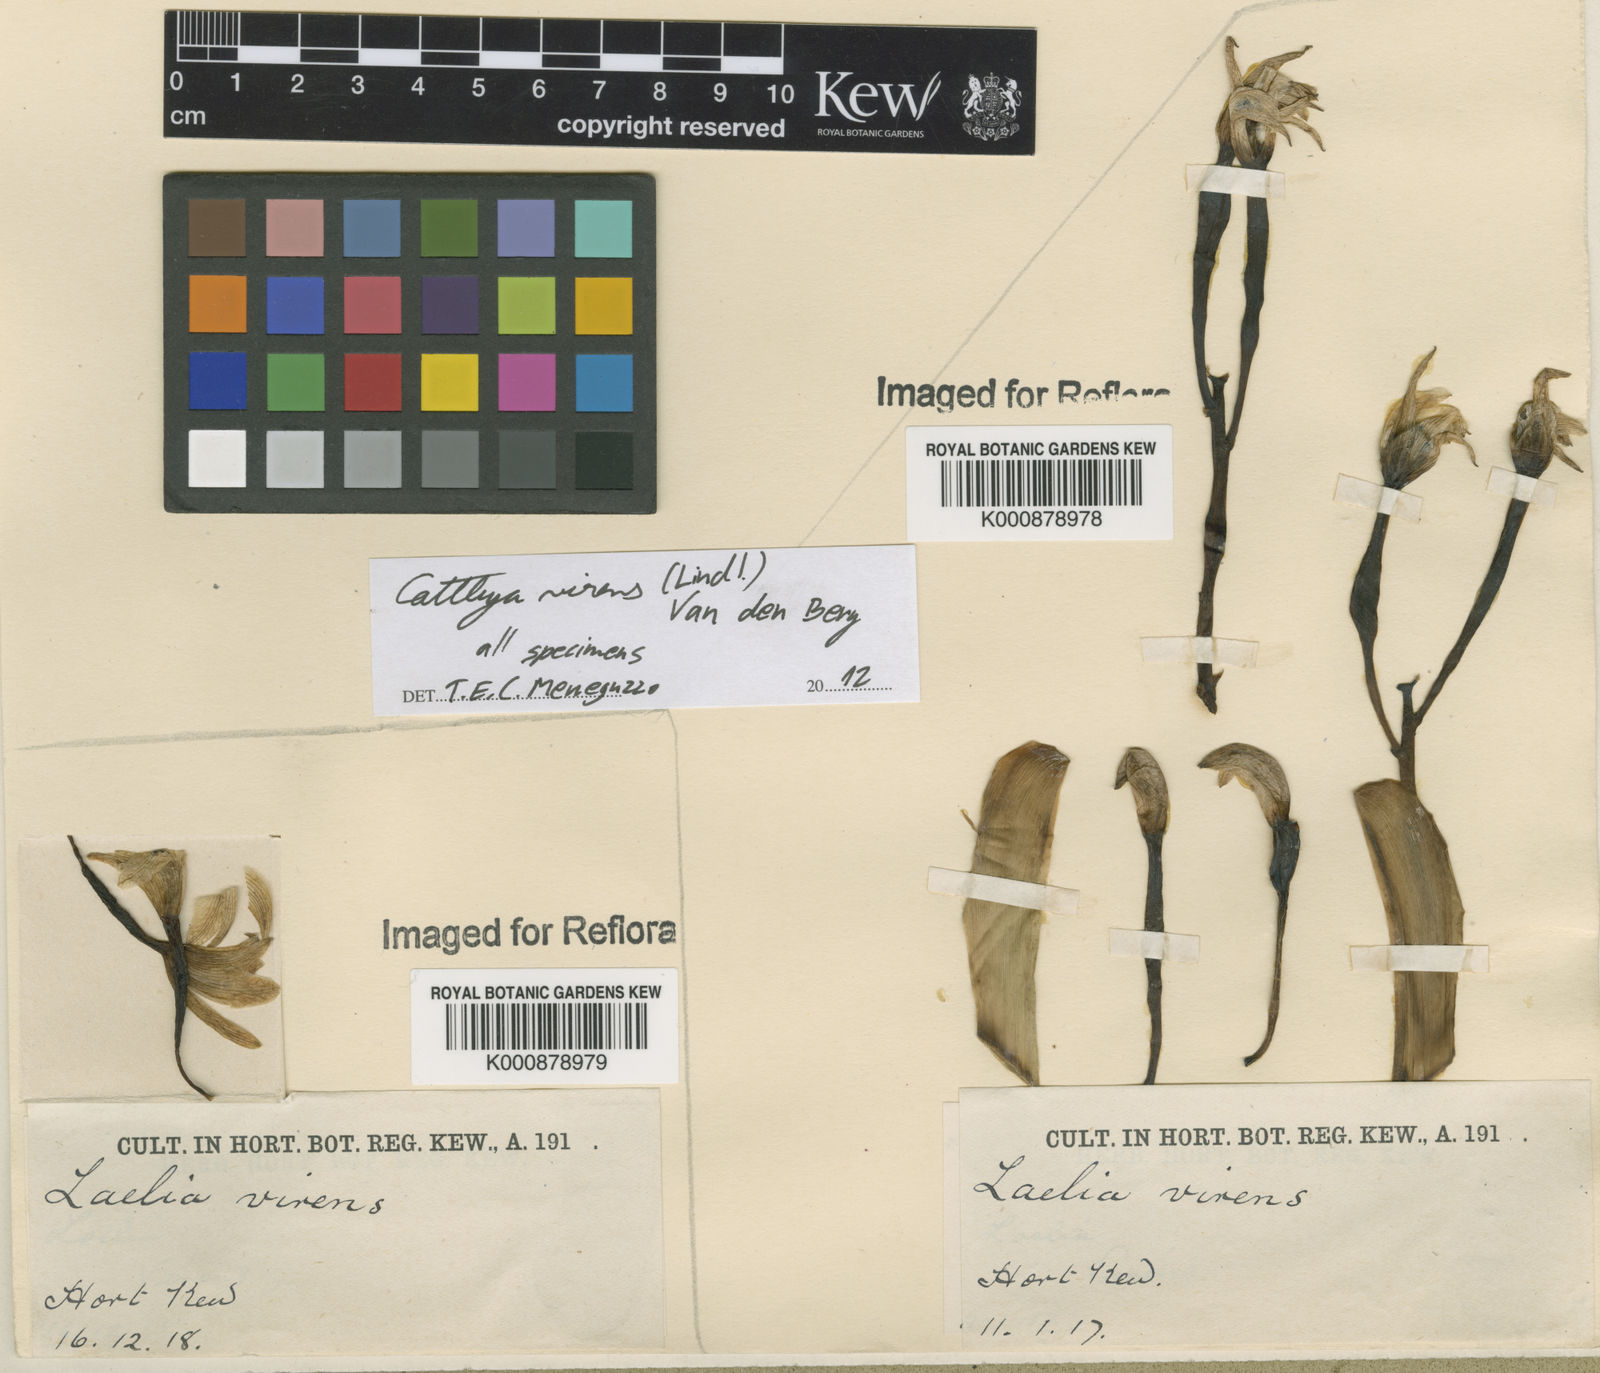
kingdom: Plantae
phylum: Tracheophyta
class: Liliopsida
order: Asparagales
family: Orchidaceae
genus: Cattleya
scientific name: Cattleya virens
